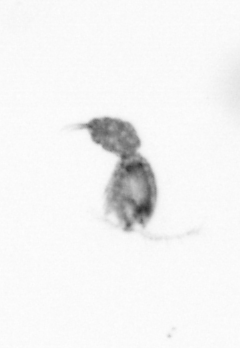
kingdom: Animalia
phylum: Arthropoda
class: Copepoda
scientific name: Copepoda
